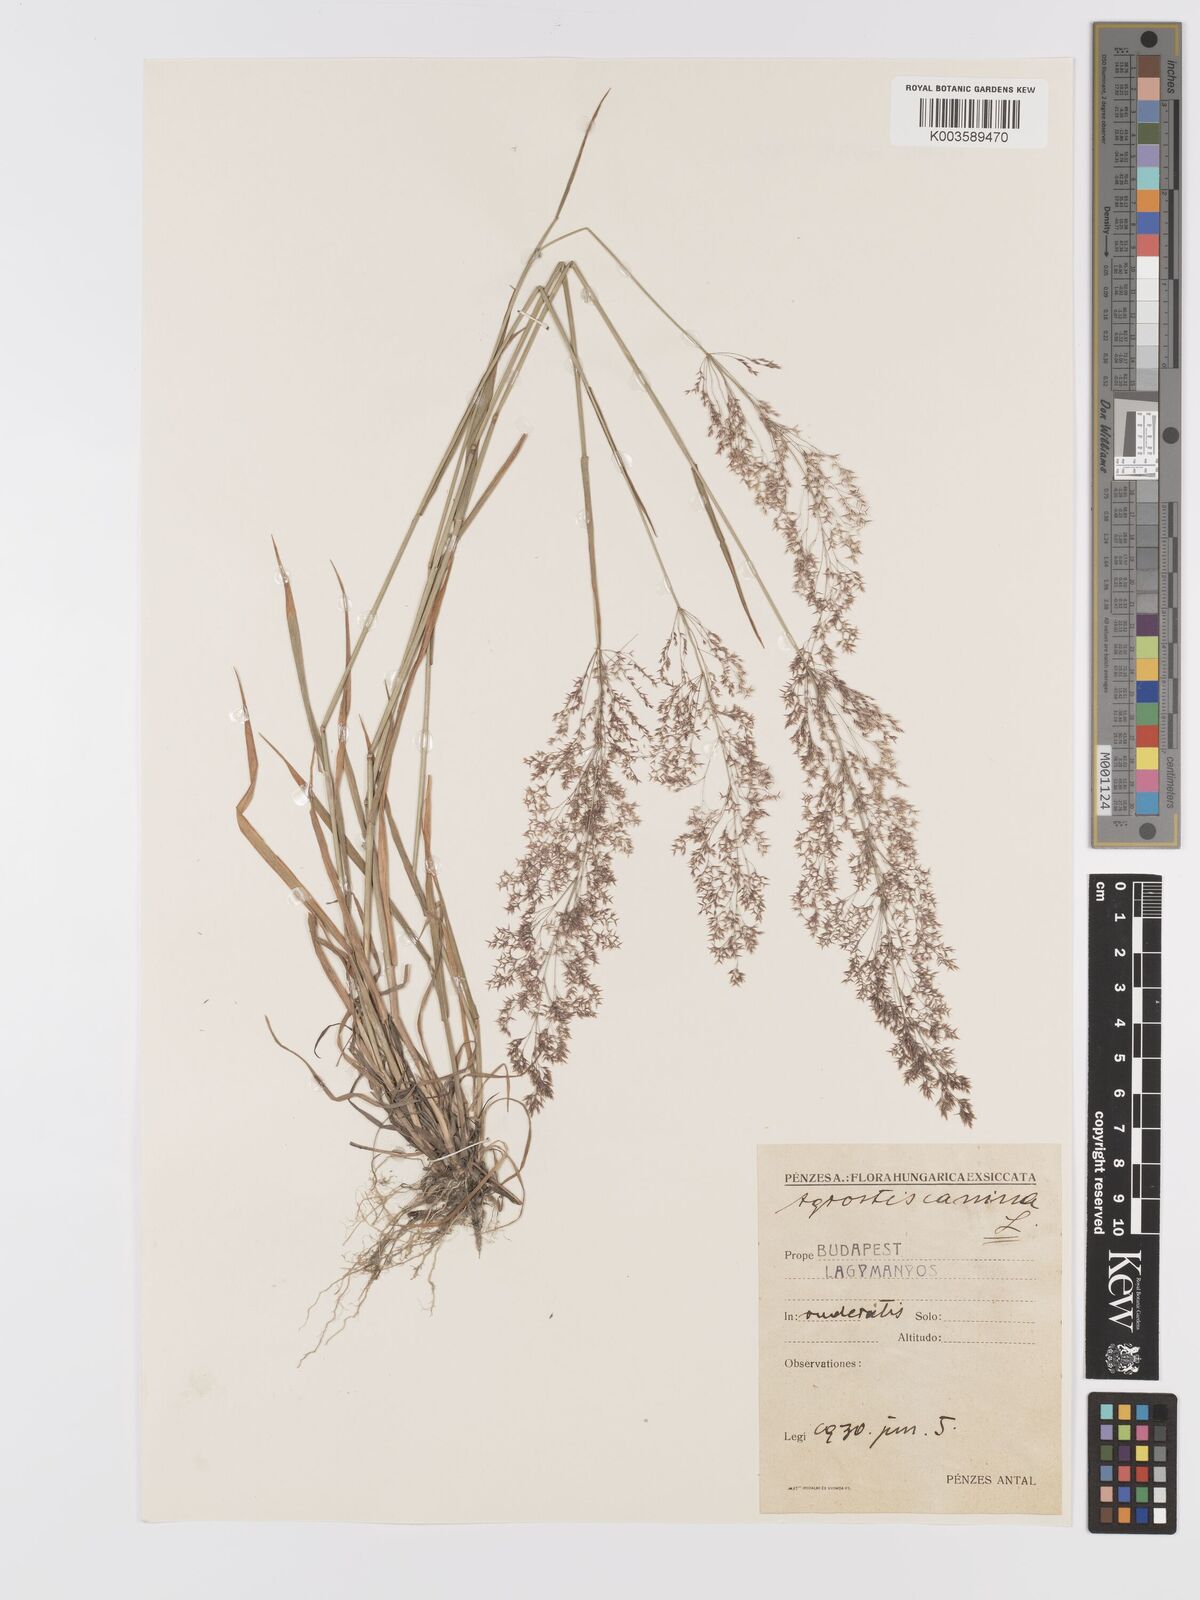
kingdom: Plantae
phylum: Tracheophyta
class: Liliopsida
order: Poales
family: Poaceae
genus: Agrostis
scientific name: Agrostis canina
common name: Velvet bent
